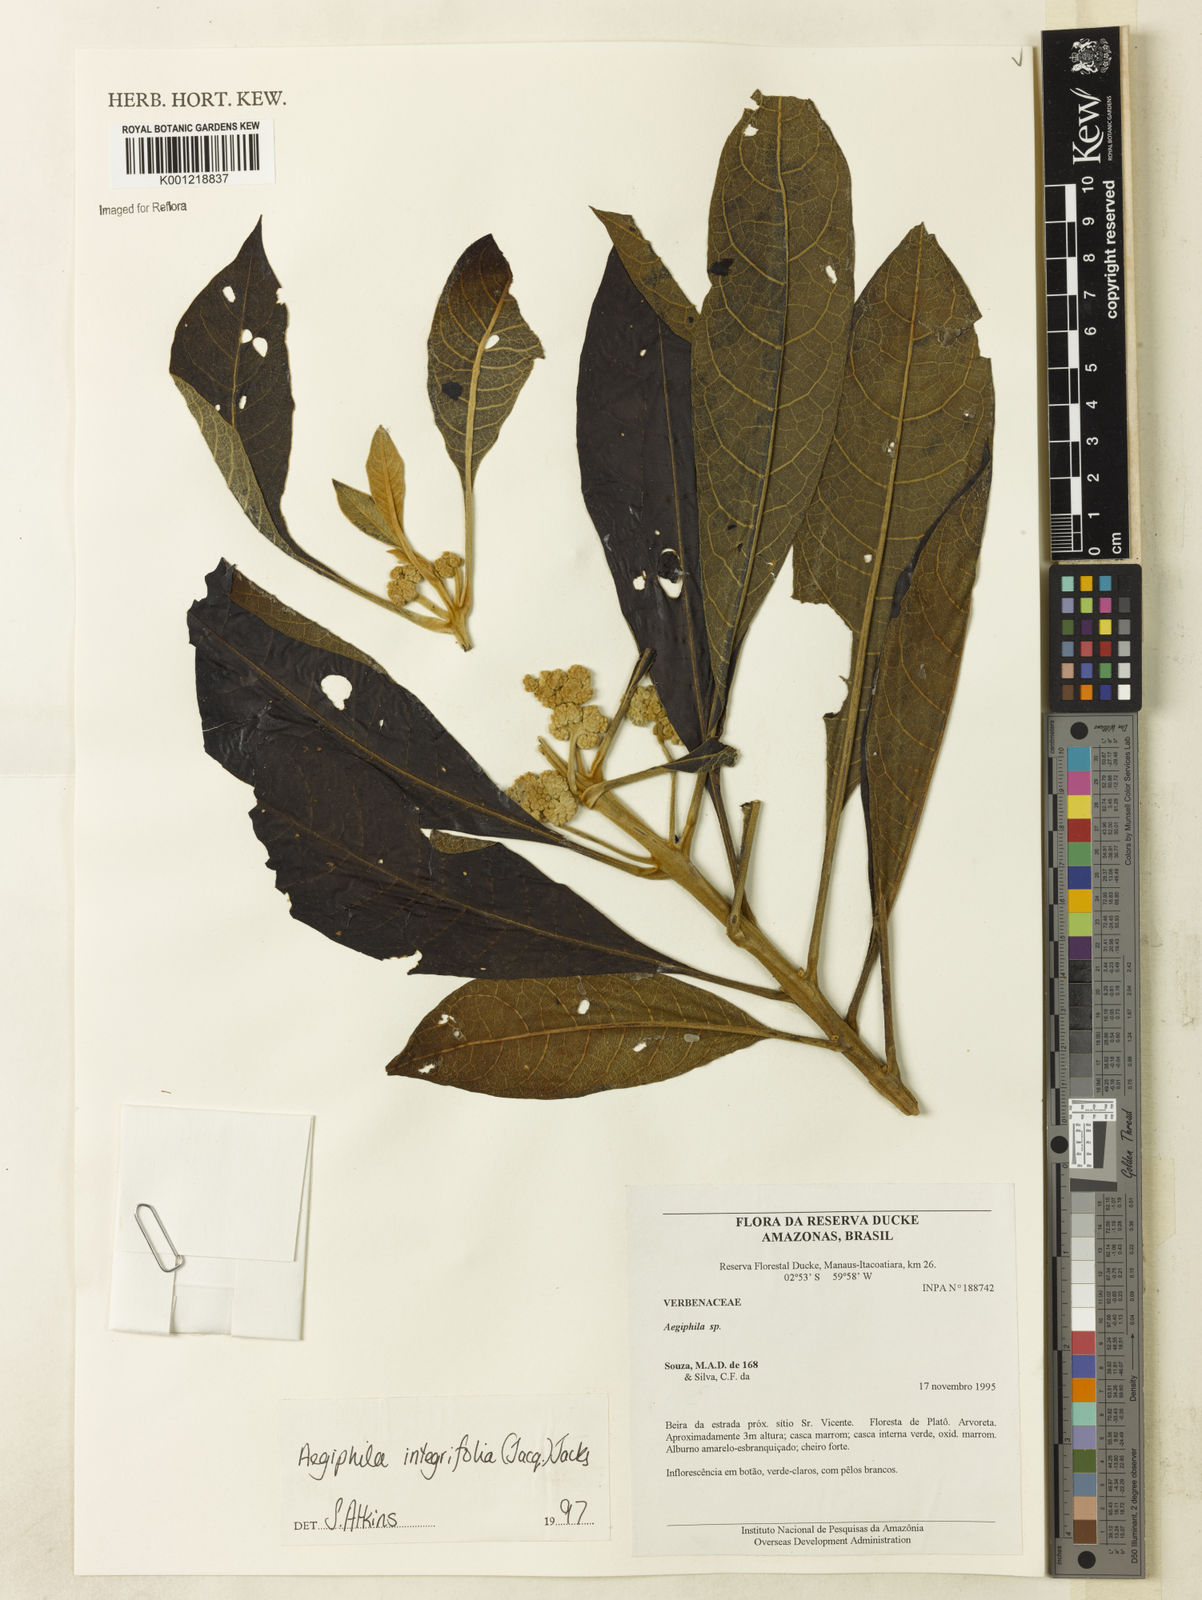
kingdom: Plantae
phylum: Tracheophyta
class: Magnoliopsida
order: Lamiales
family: Lamiaceae
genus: Aegiphila
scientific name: Aegiphila
